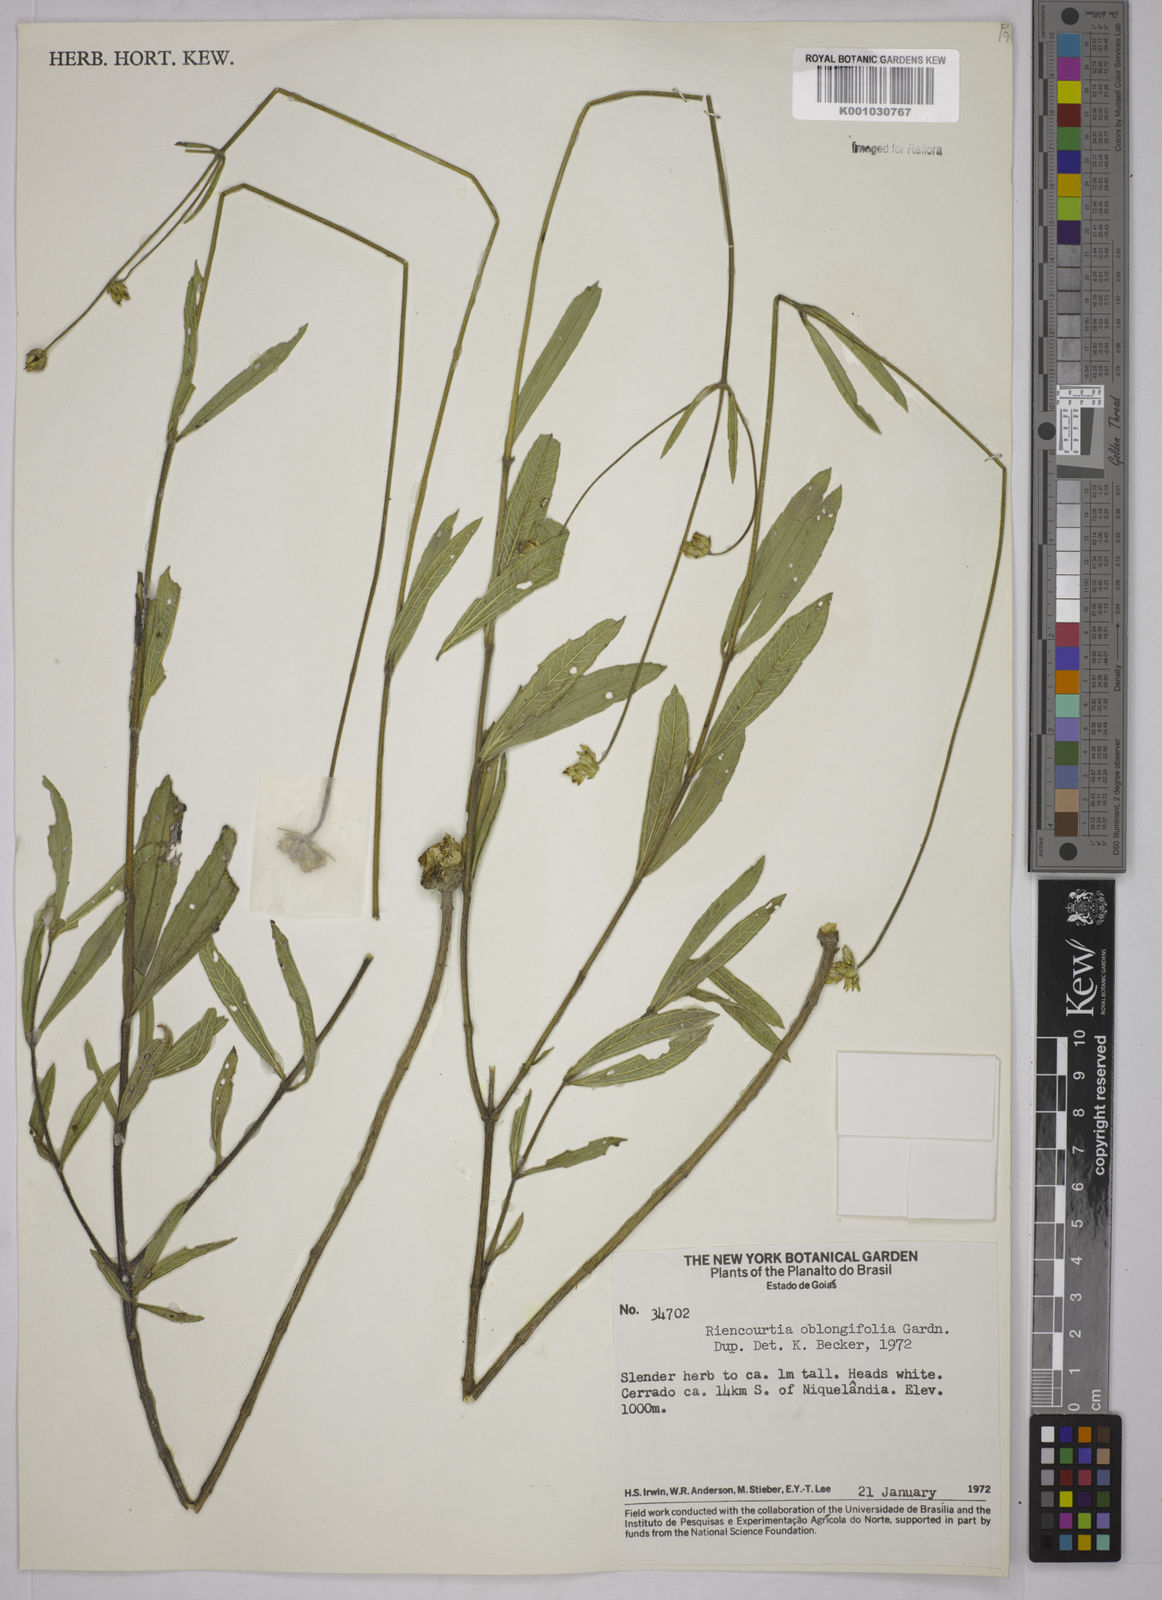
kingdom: Plantae
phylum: Tracheophyta
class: Magnoliopsida
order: Asterales
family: Asteraceae
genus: Riencourtia
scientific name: Riencourtia oblongifolia
